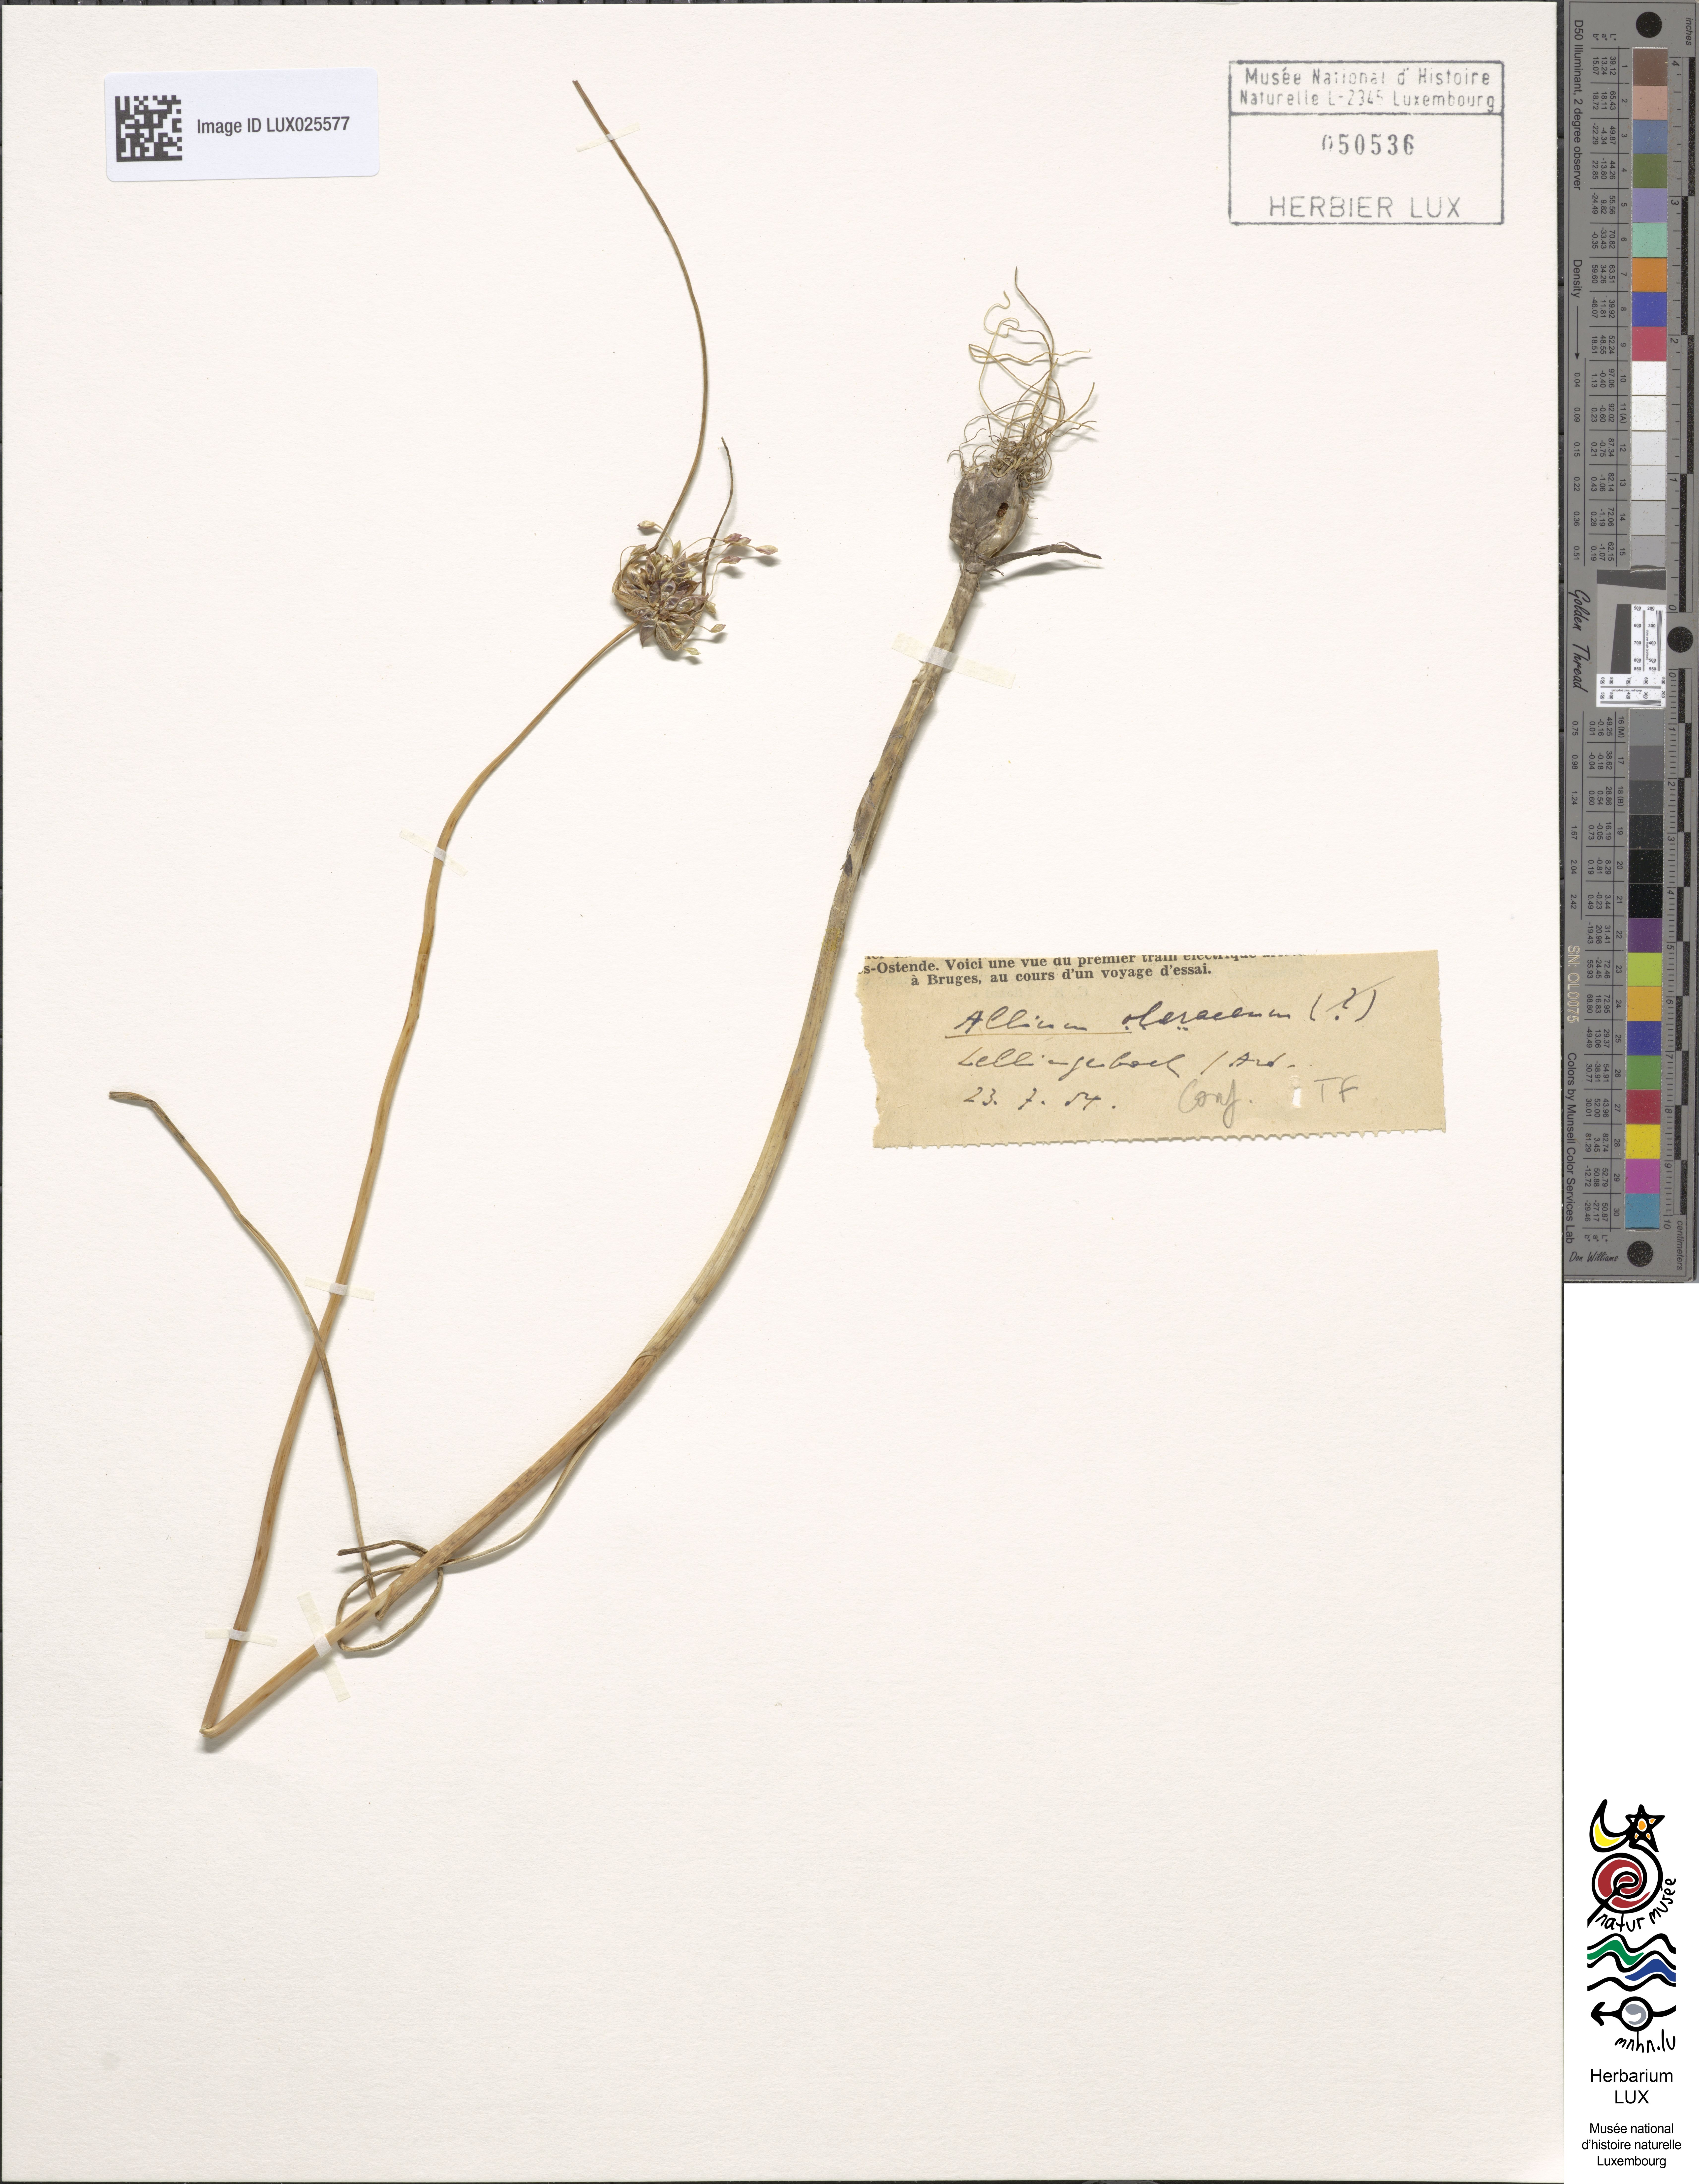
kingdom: Plantae
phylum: Tracheophyta
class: Liliopsida
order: Asparagales
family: Amaryllidaceae
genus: Allium
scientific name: Allium oleraceum
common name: Field garlic
